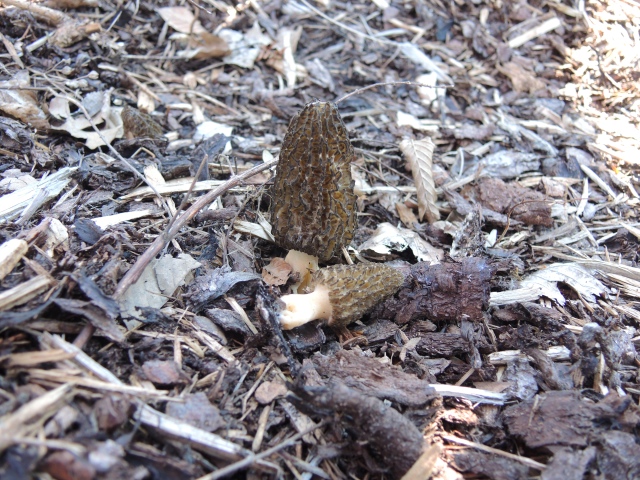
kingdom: Fungi
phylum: Ascomycota
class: Pezizomycetes
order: Pezizales
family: Morchellaceae
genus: Morchella
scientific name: Morchella importuna
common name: Landscaping black morel
